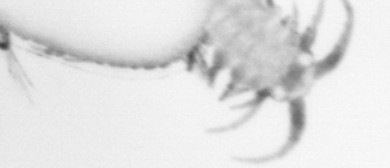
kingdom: Animalia
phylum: Annelida
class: Polychaeta
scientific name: Polychaeta
